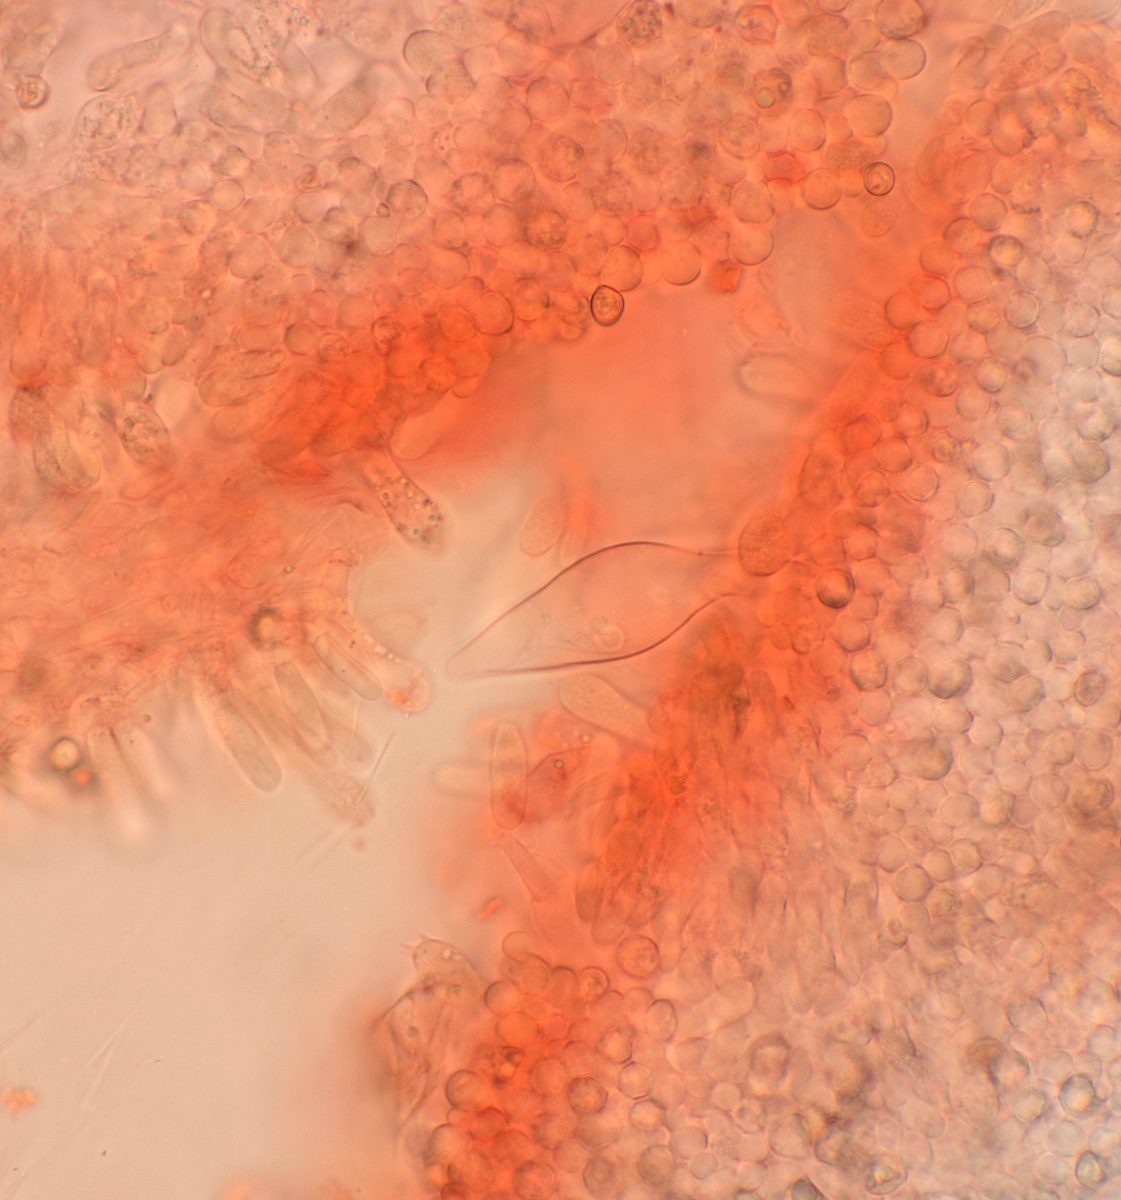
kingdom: Fungi
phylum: Basidiomycota
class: Agaricomycetes
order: Agaricales
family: Pluteaceae
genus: Pluteus
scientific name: Pluteus cinereofuscus
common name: Ashen shield
